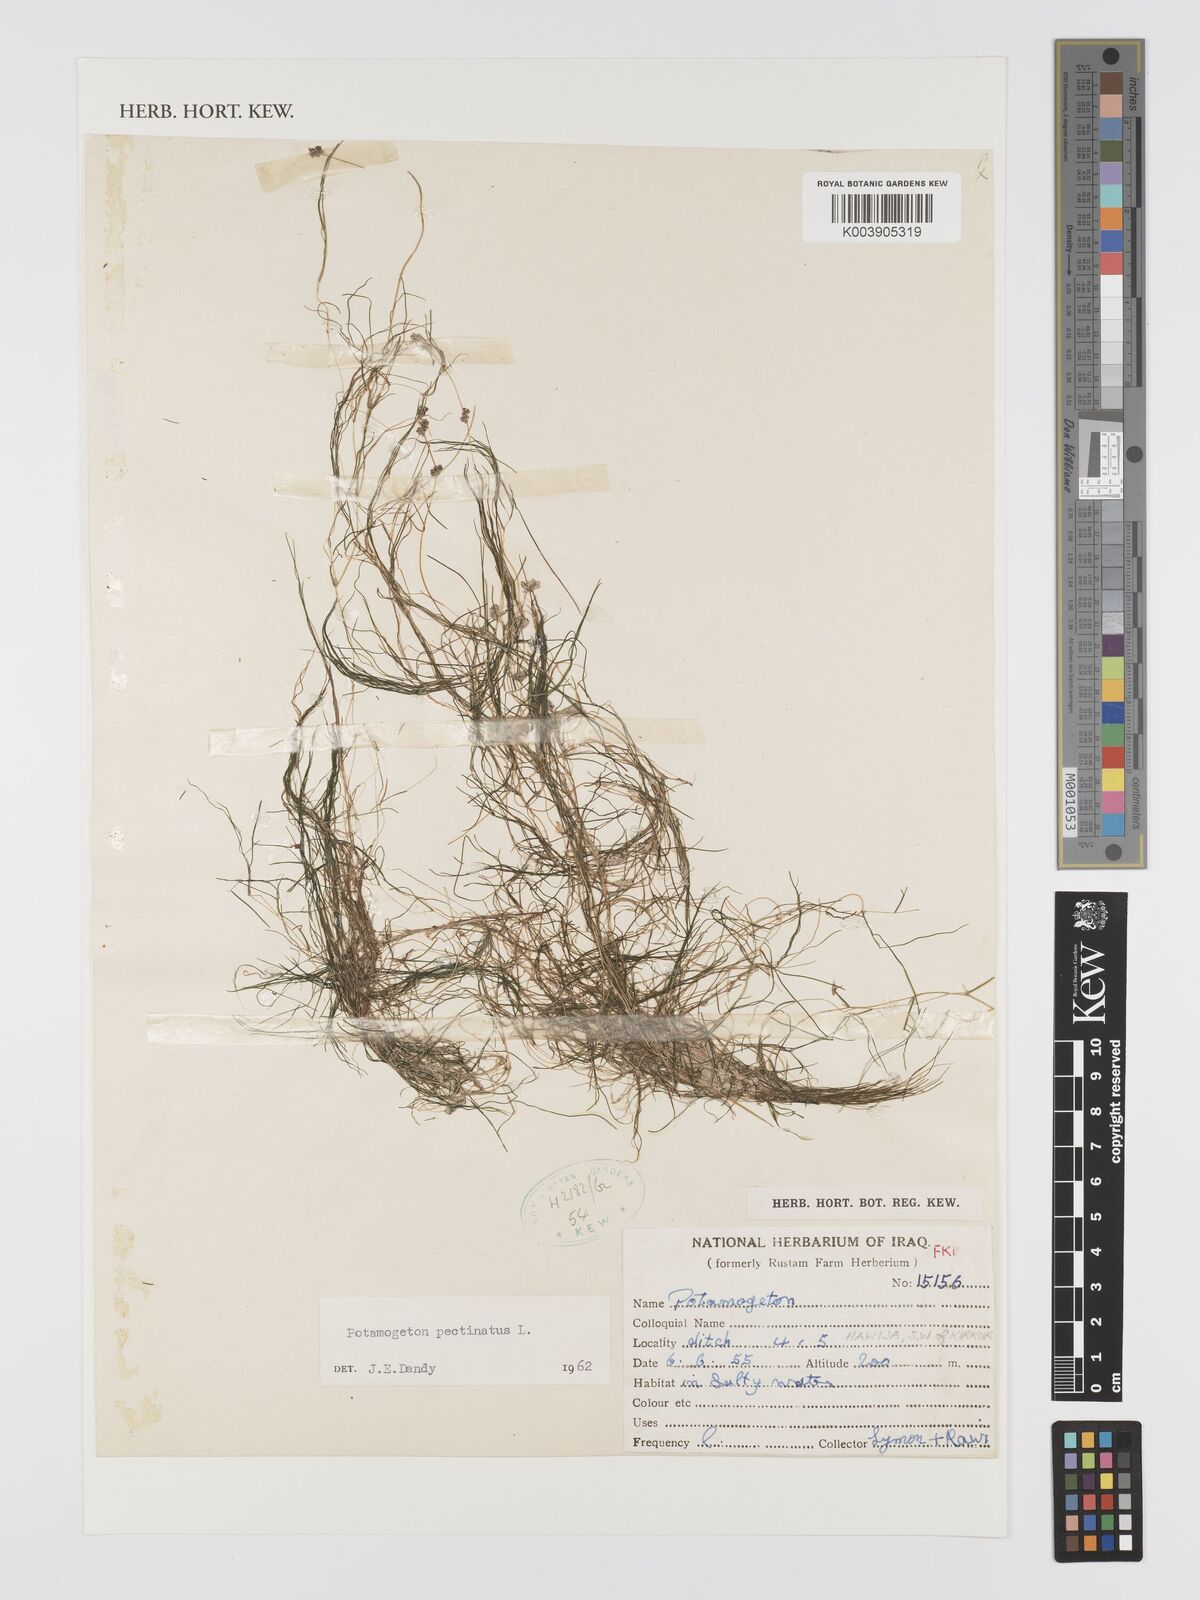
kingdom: Plantae
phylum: Tracheophyta
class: Liliopsida
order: Alismatales
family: Potamogetonaceae
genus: Stuckenia
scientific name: Stuckenia pectinata
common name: Sago pondweed
